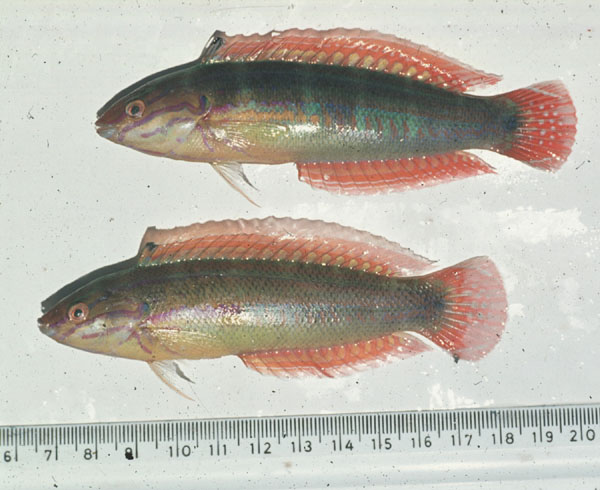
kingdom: Animalia
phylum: Chordata
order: Perciformes
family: Labridae
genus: Coris
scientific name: Coris caudimacula
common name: Spottail coris
